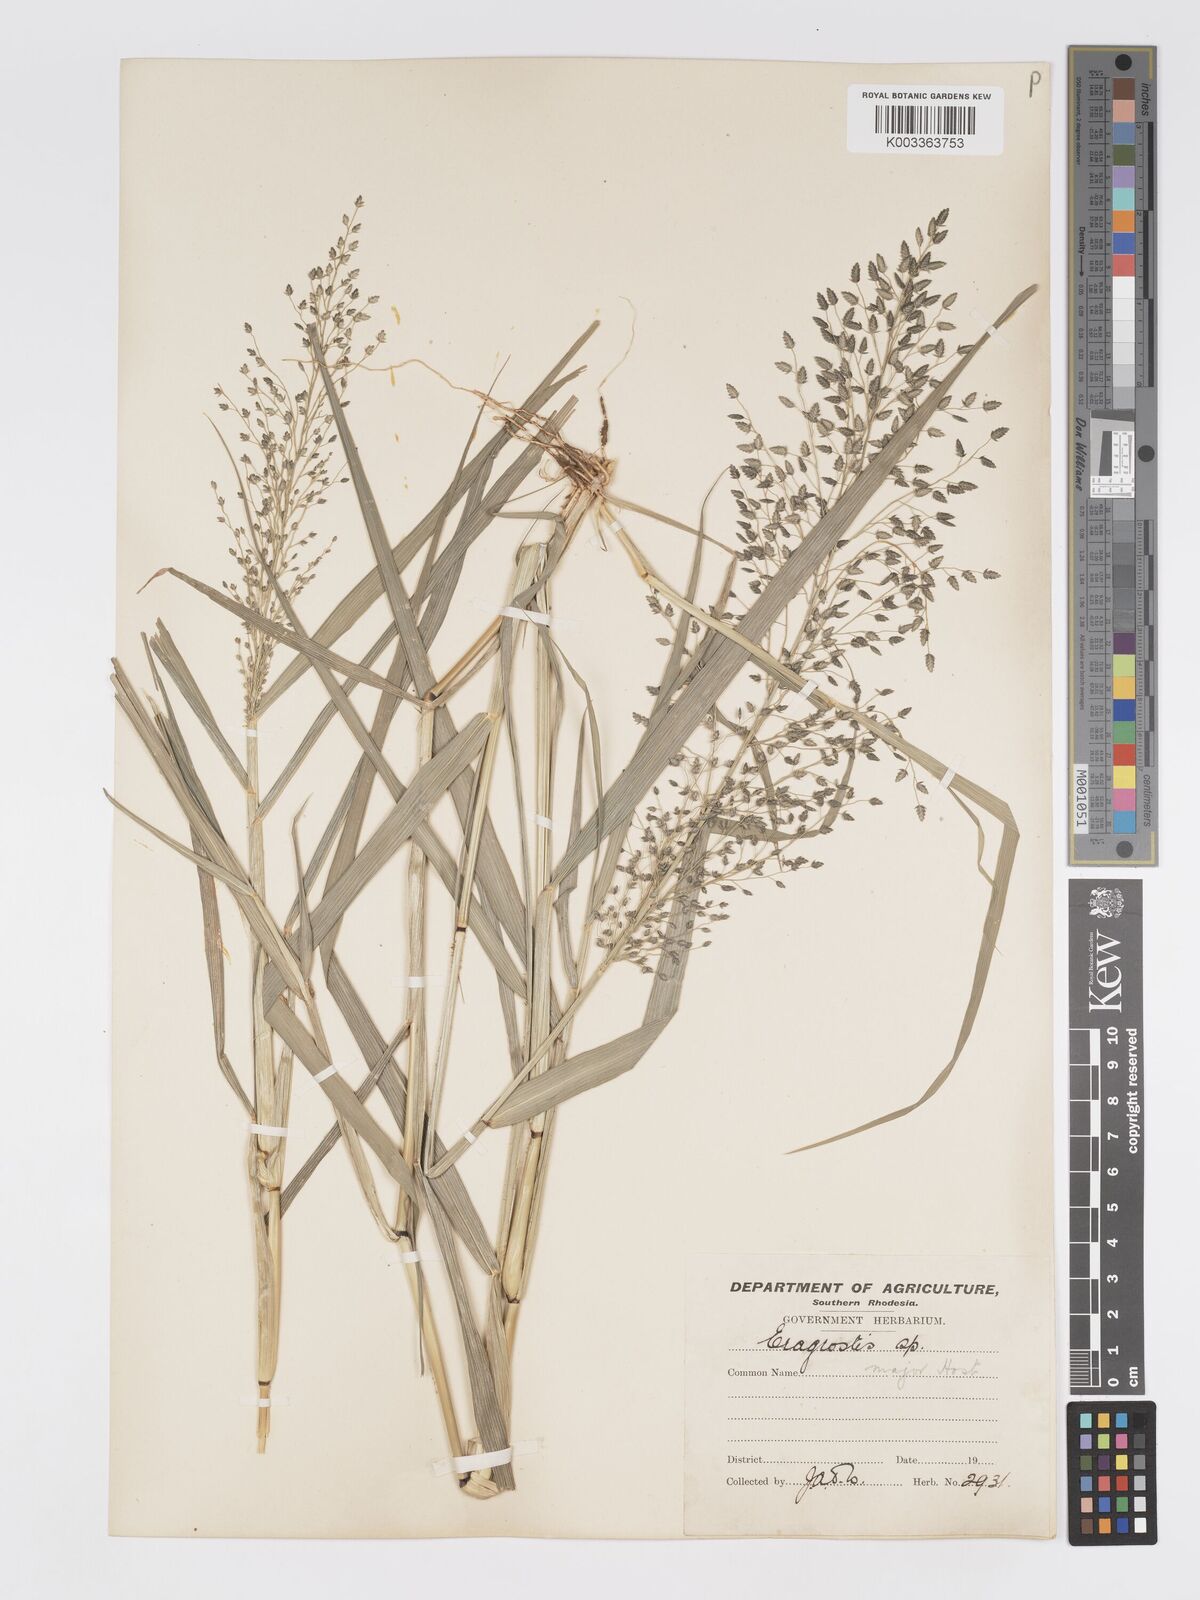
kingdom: Plantae
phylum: Tracheophyta
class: Liliopsida
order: Poales
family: Poaceae
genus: Eragrostis
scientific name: Eragrostis cilianensis
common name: Stinkgrass
